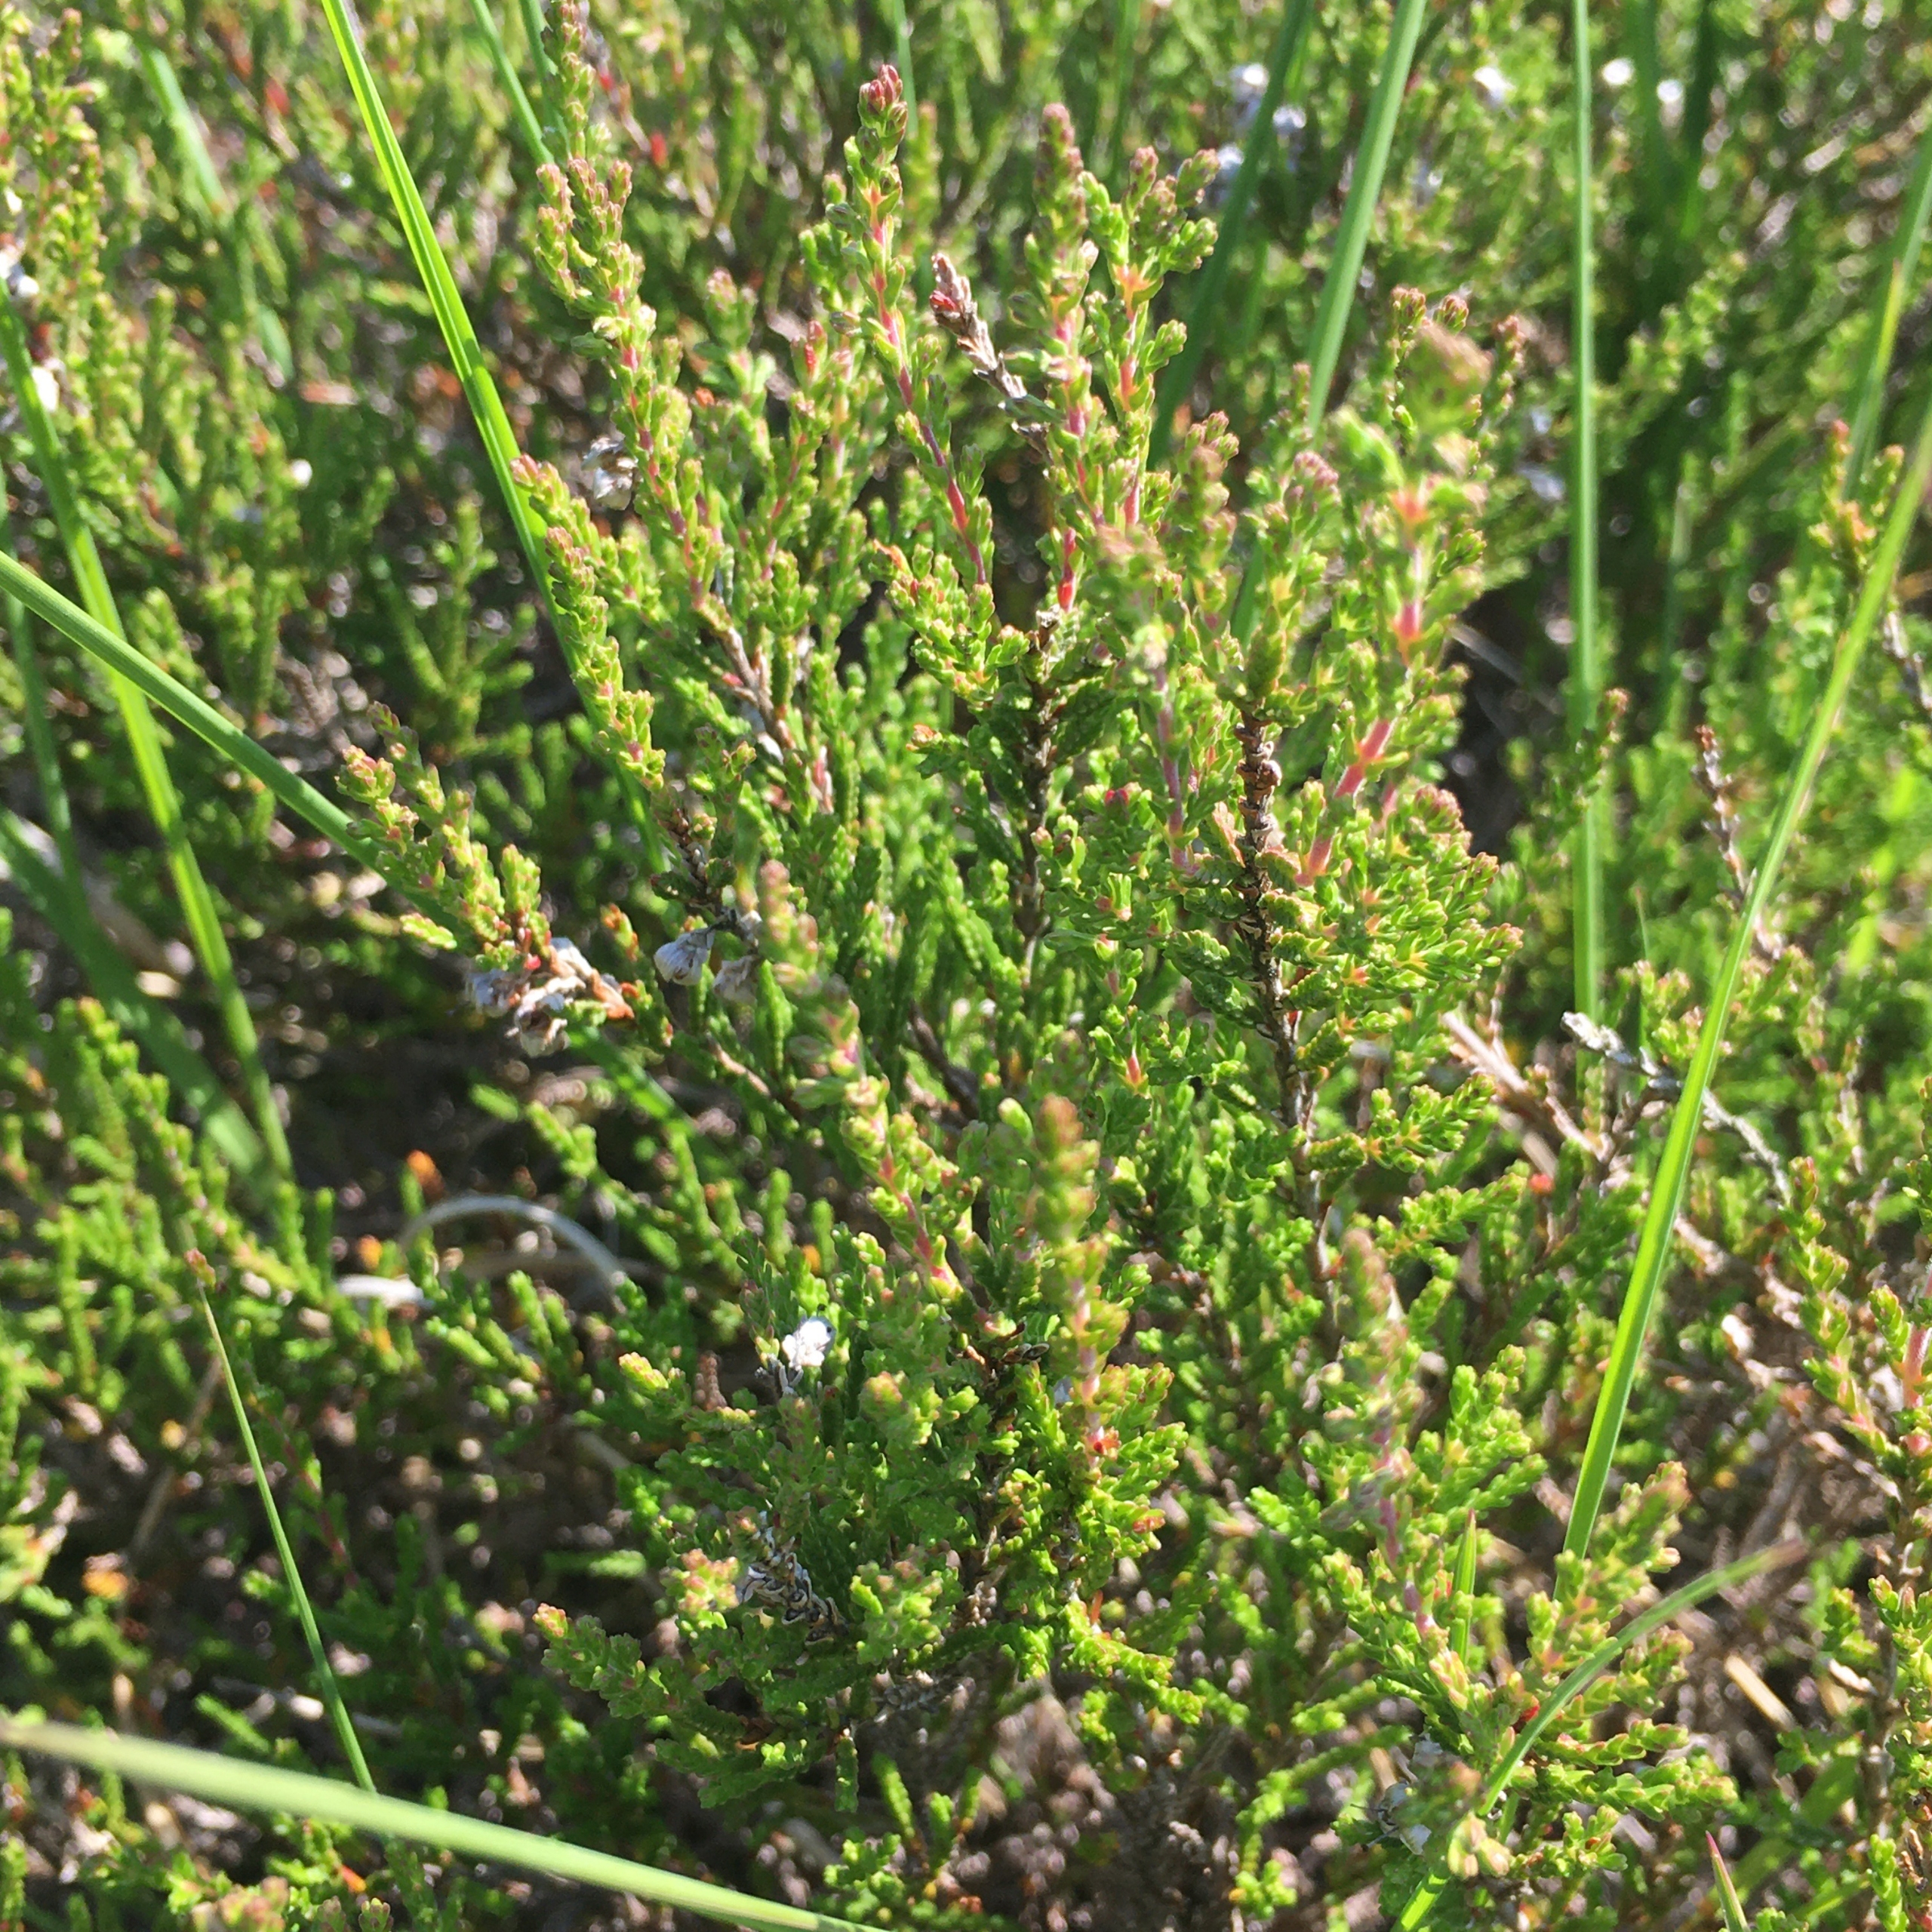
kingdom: Plantae
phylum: Tracheophyta
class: Magnoliopsida
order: Ericales
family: Ericaceae
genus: Calluna
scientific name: Calluna vulgaris
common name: Hedelyng
